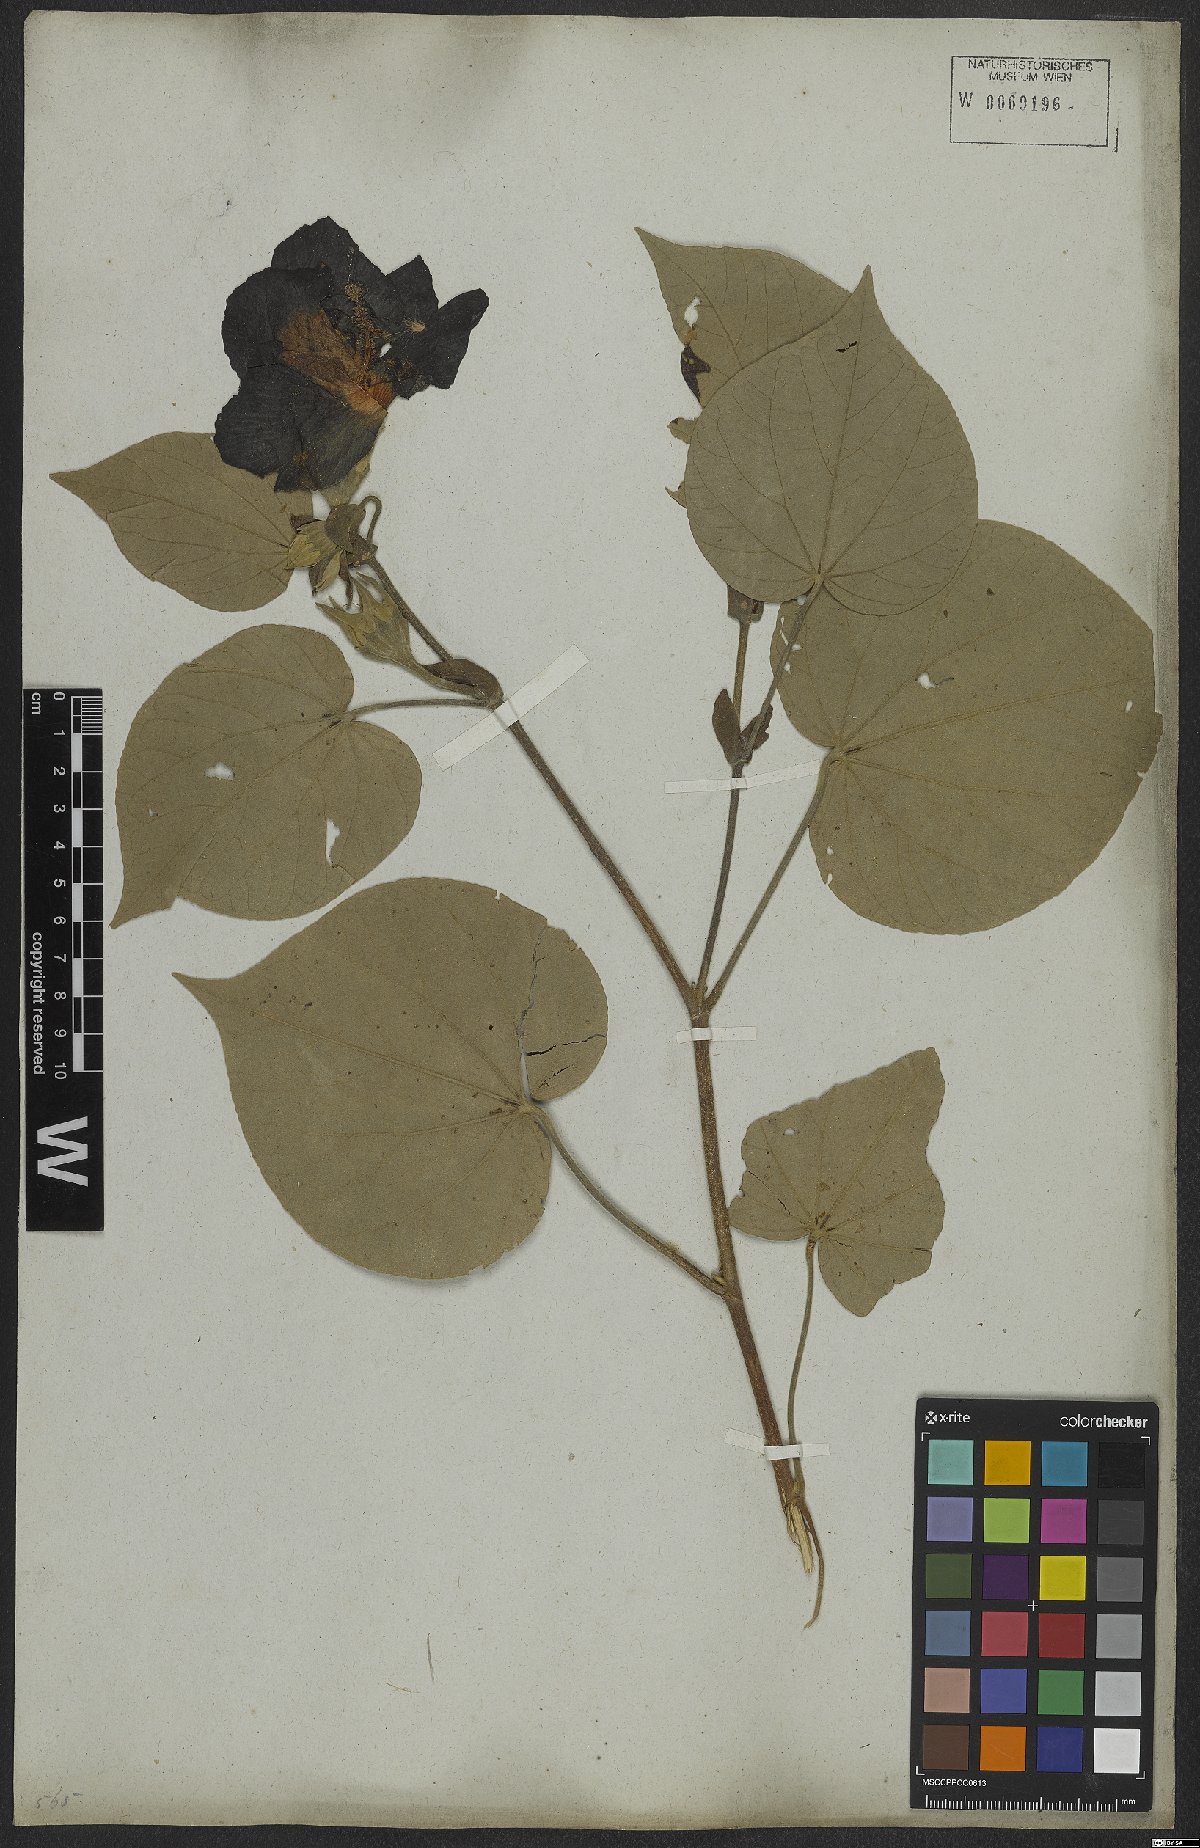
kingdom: Plantae
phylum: Tracheophyta
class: Magnoliopsida
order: Malvales
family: Malvaceae
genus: Talipariti
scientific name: Talipariti tiliaceum
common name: Sea hibiscus
